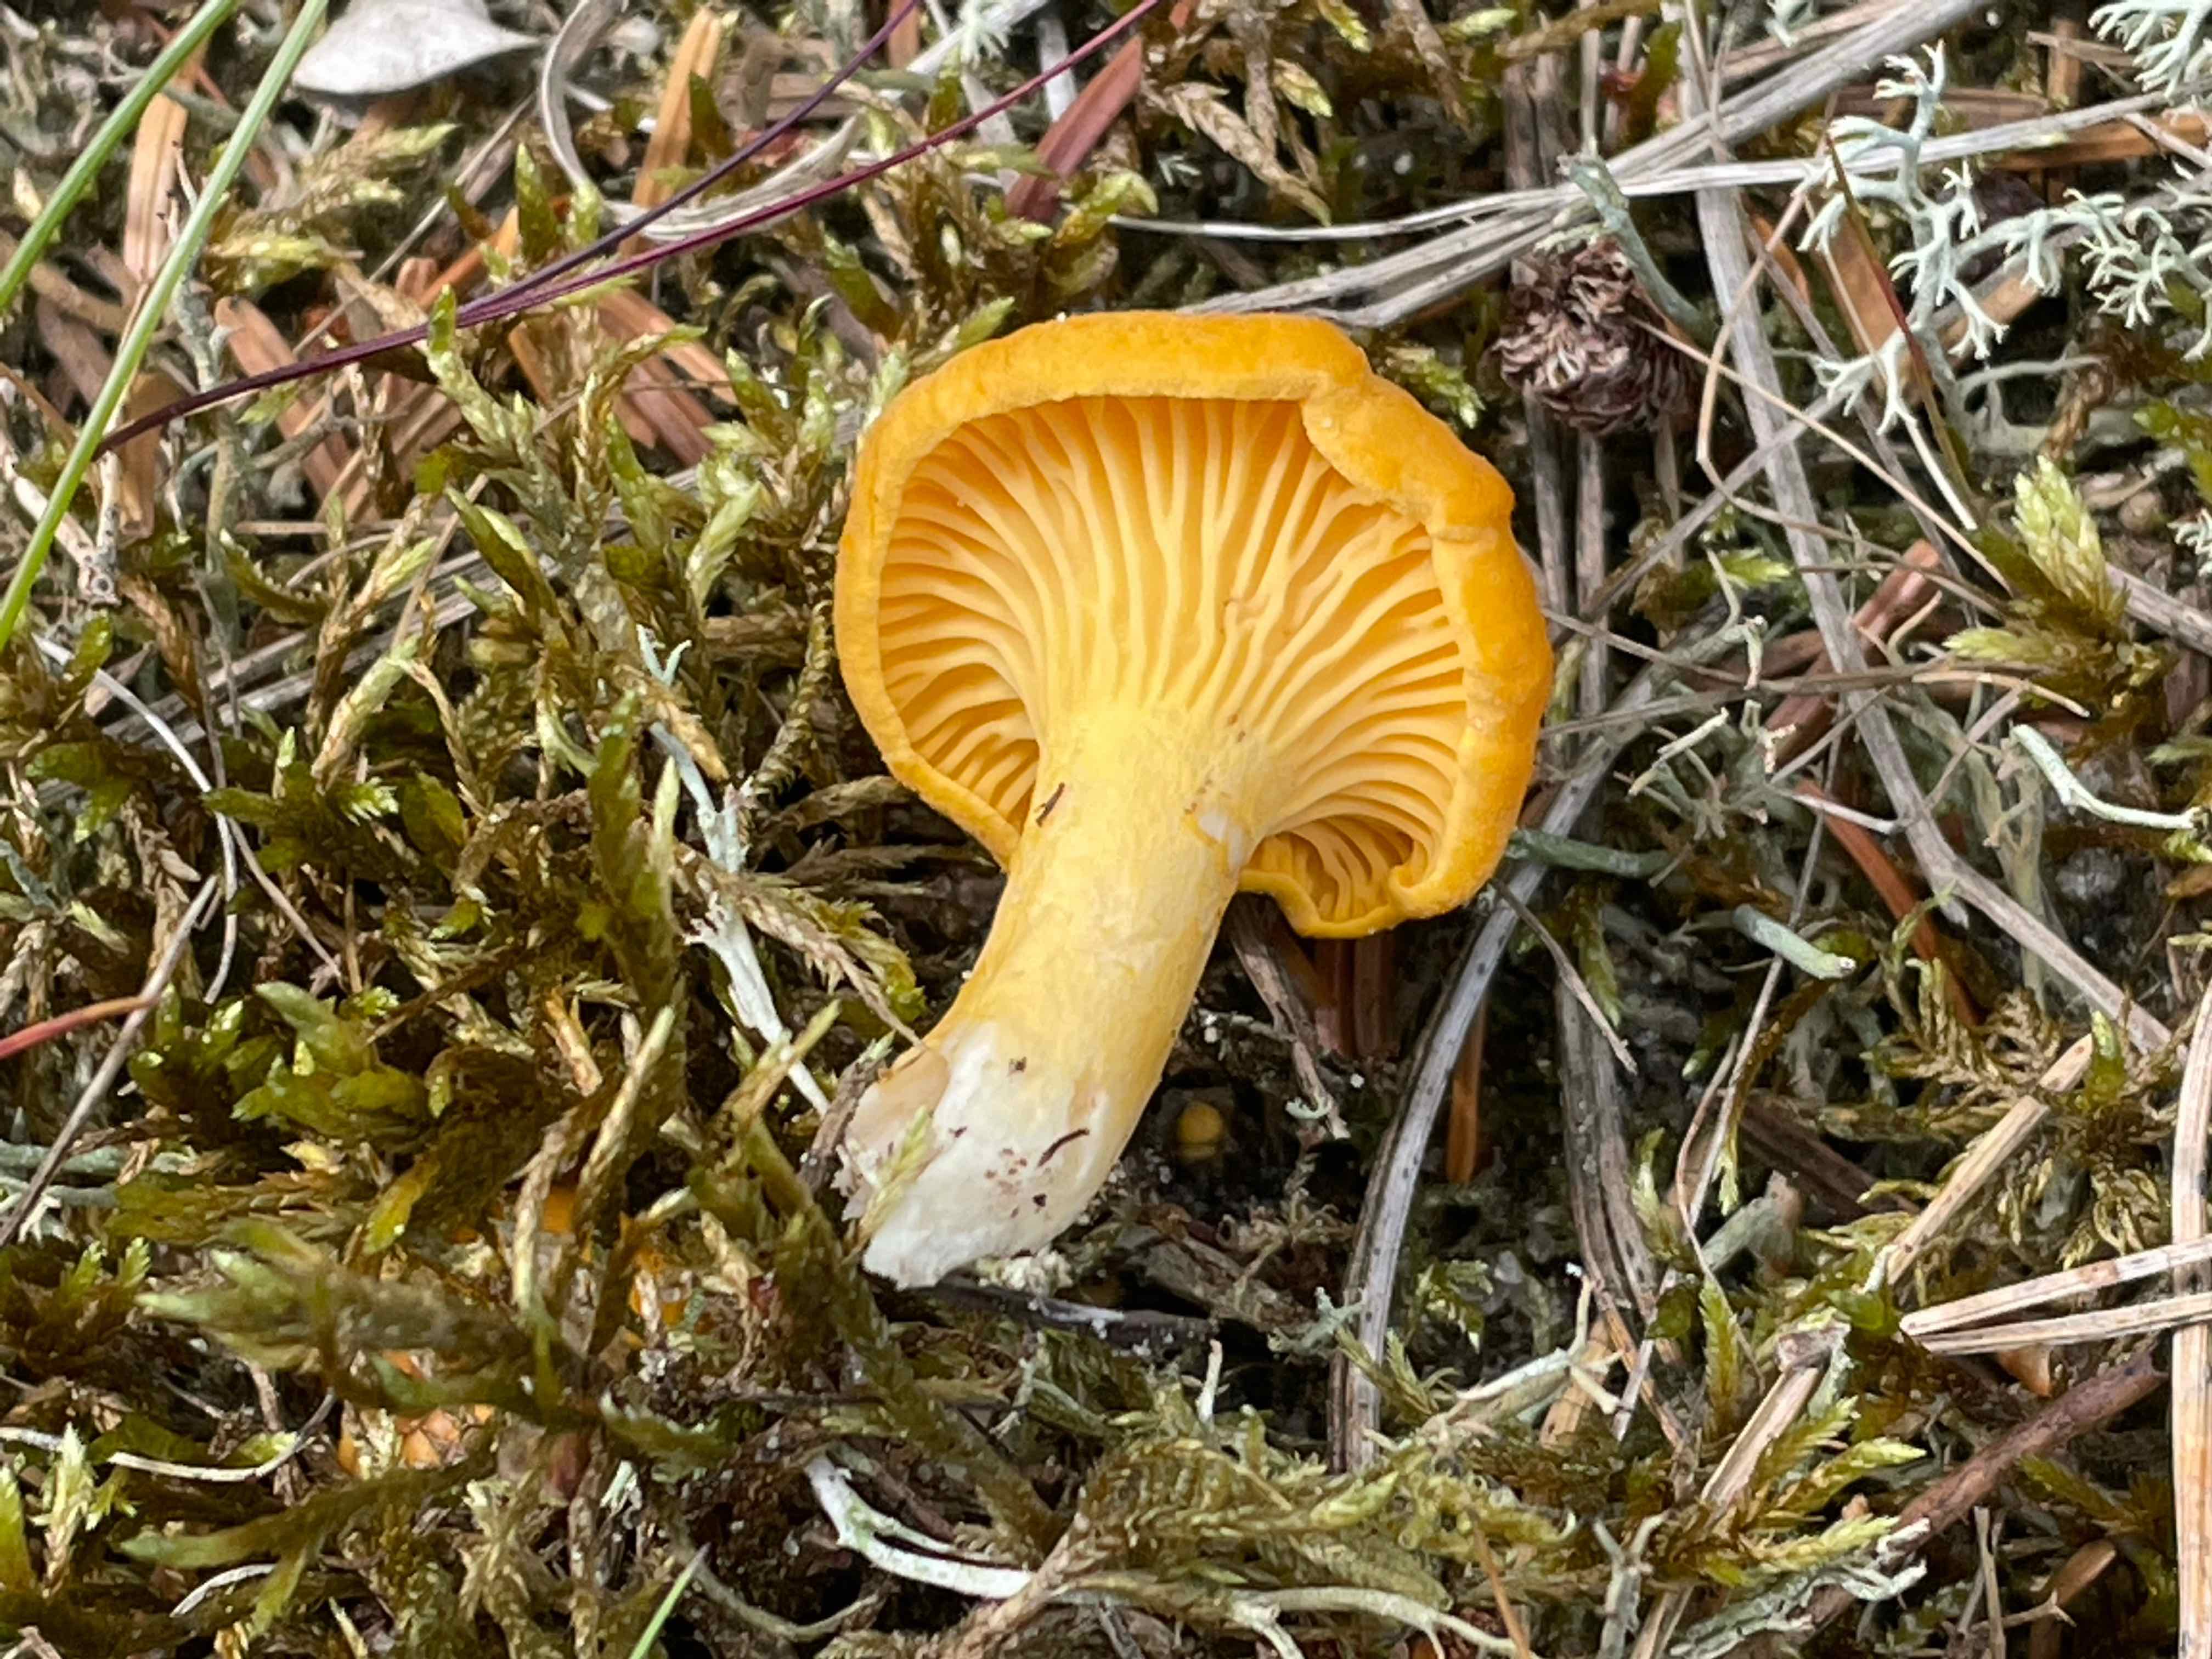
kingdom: Fungi
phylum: Basidiomycota
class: Agaricomycetes
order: Cantharellales
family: Hydnaceae
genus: Cantharellus
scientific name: Cantharellus cibarius
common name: almindelig kantarel
